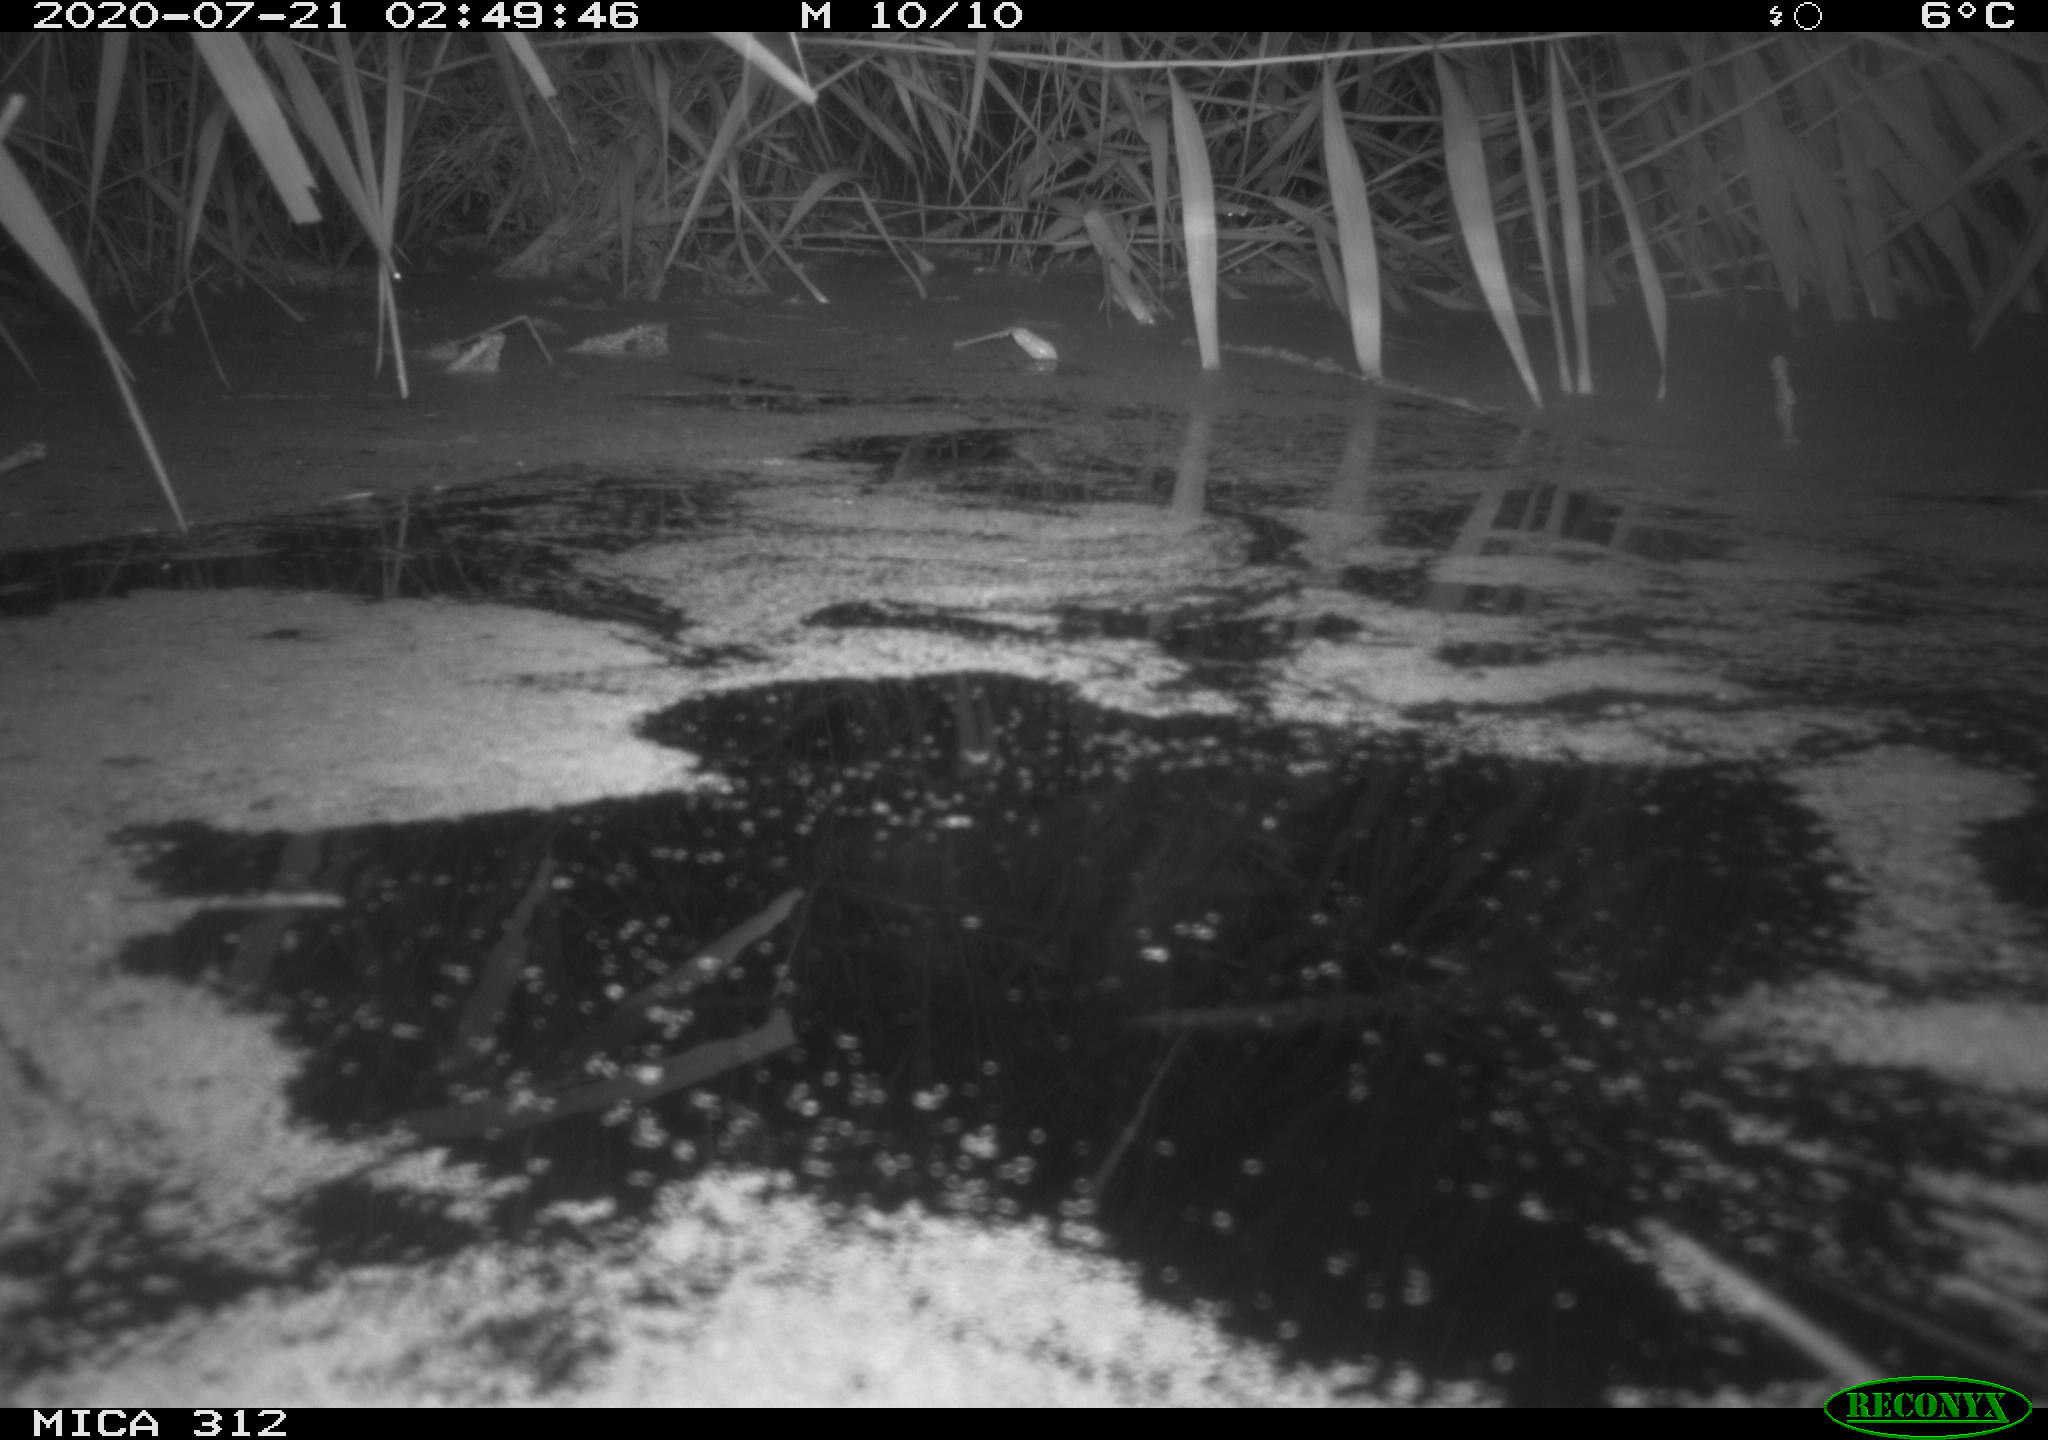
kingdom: Animalia
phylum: Chordata
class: Mammalia
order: Rodentia
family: Muridae
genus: Rattus
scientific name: Rattus norvegicus
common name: Brown rat
